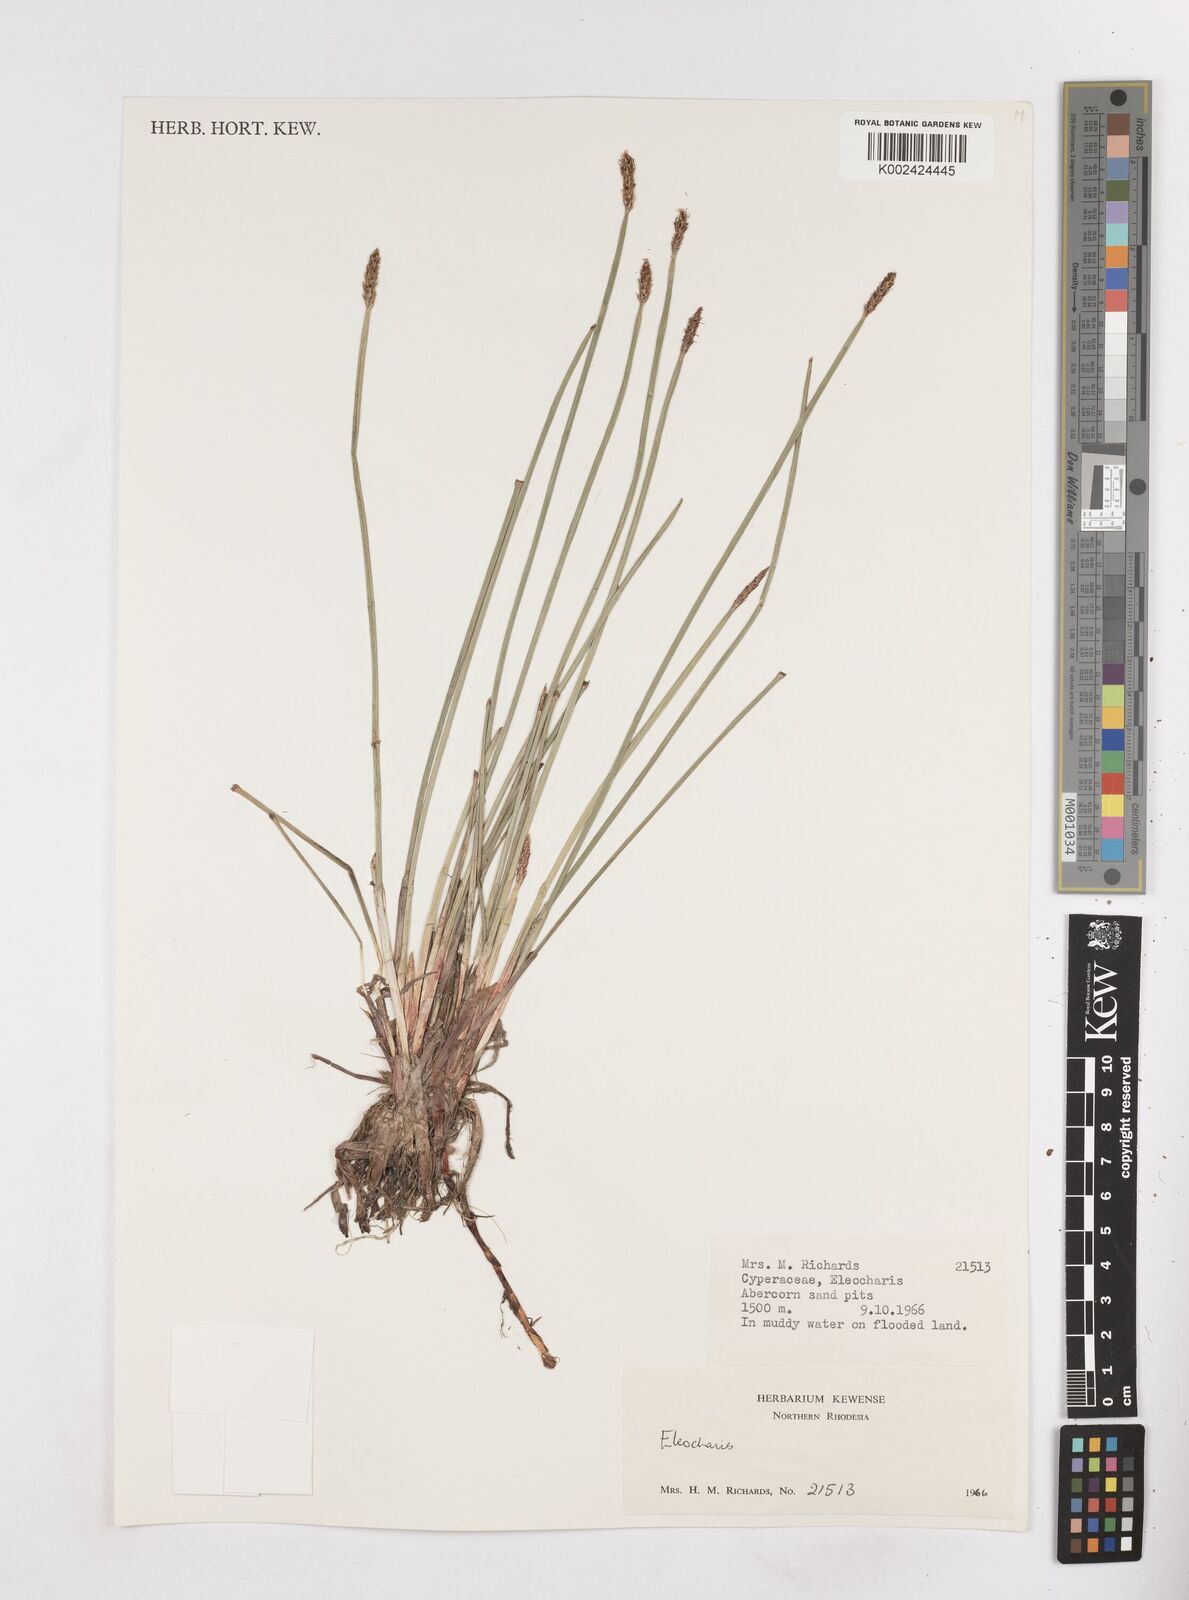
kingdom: Plantae
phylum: Tracheophyta
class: Liliopsida
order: Poales
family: Cyperaceae
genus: Eleocharis
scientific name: Eleocharis
